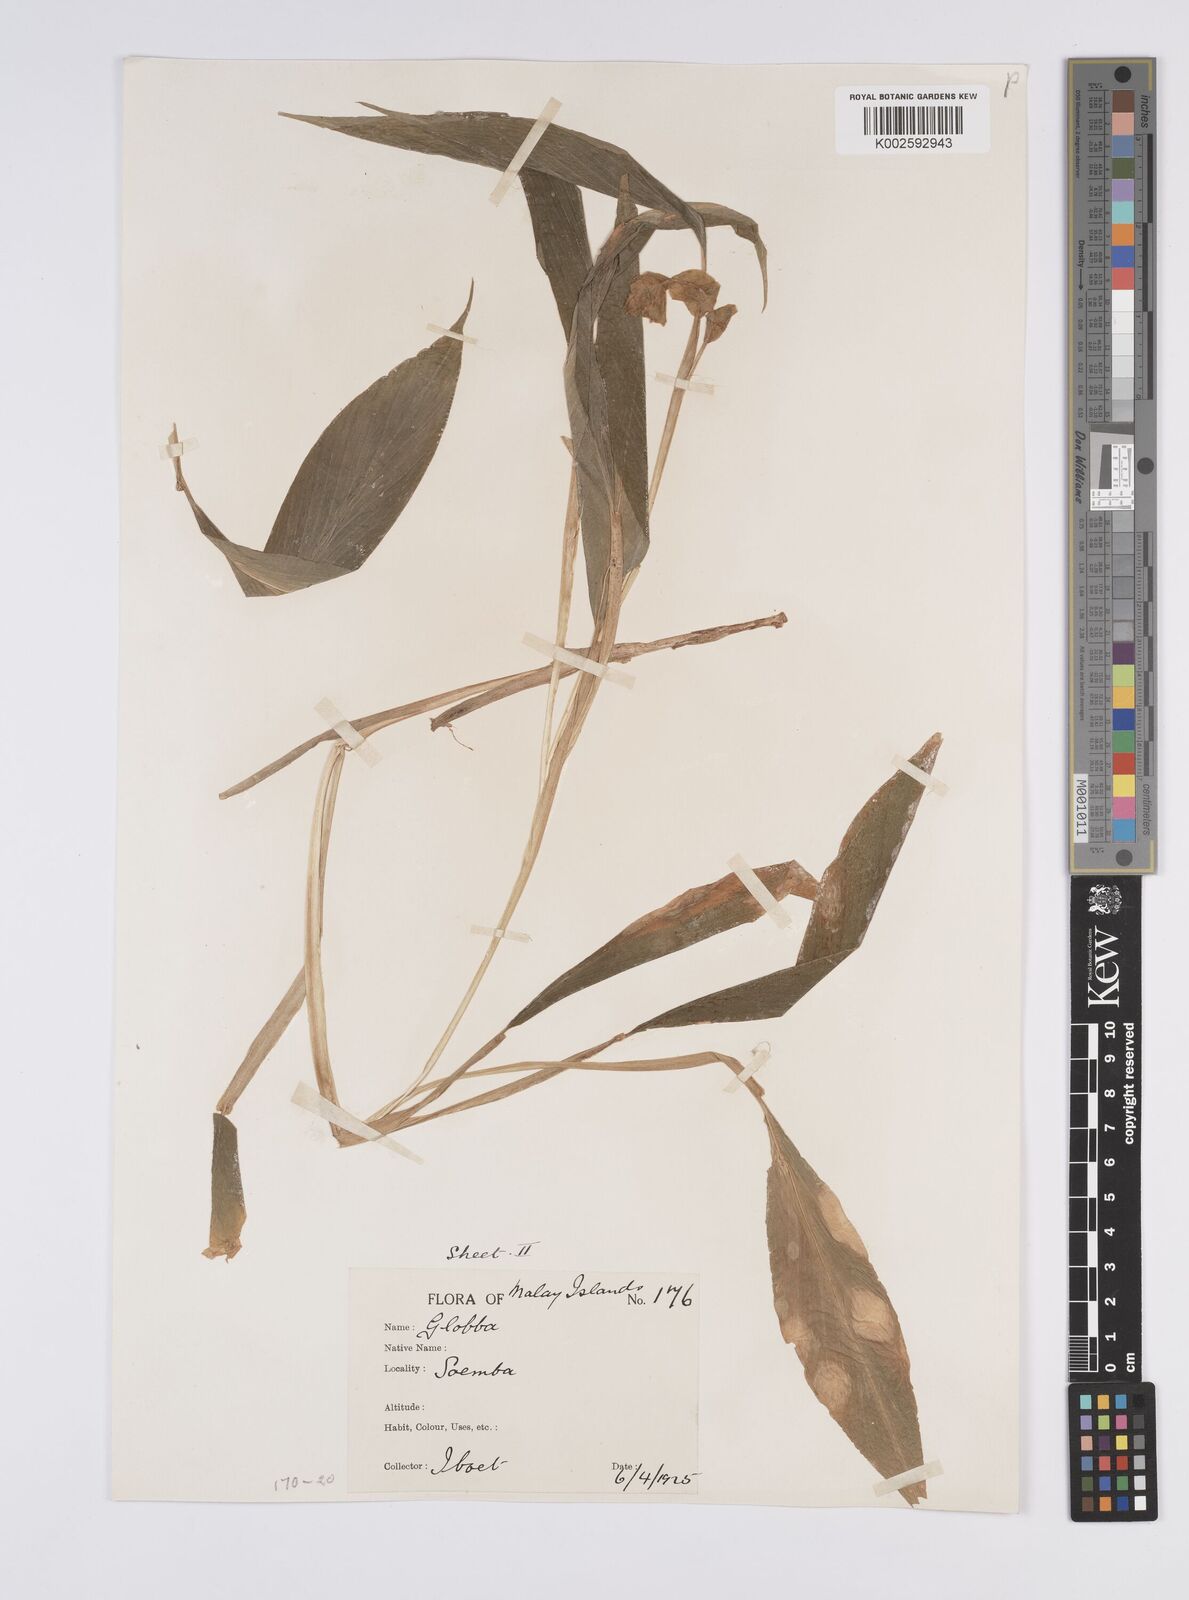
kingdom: Plantae
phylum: Tracheophyta
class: Liliopsida
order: Zingiberales
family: Zingiberaceae
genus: Globba
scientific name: Globba marantina
